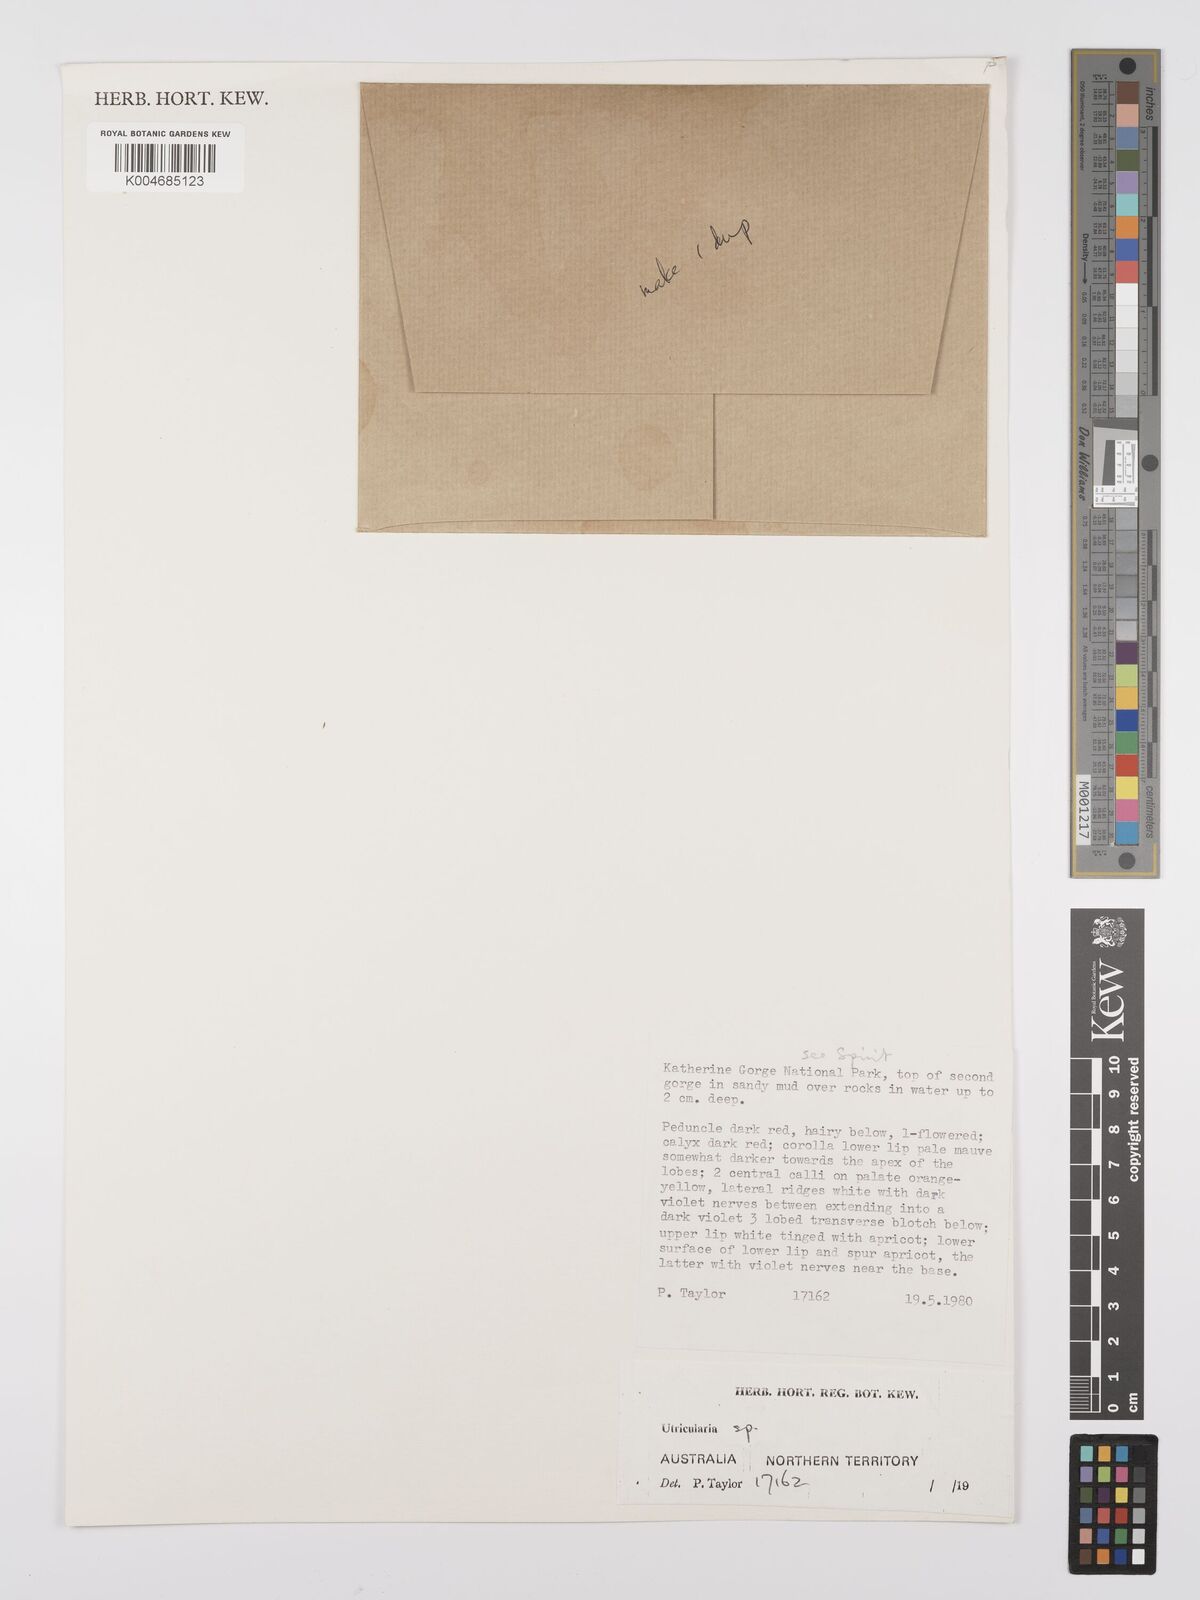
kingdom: Plantae
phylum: Tracheophyta
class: Magnoliopsida
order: Lamiales
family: Lentibulariaceae
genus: Utricularia
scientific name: Utricularia lasiocaulis
